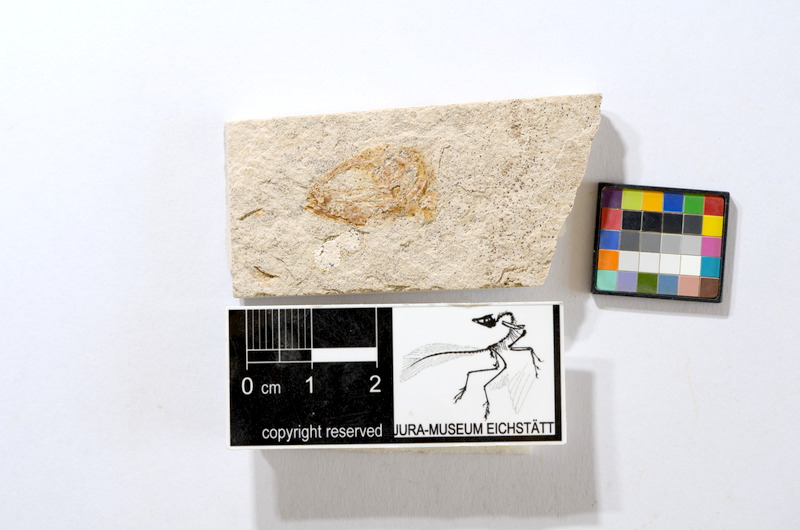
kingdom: Animalia
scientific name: Animalia
